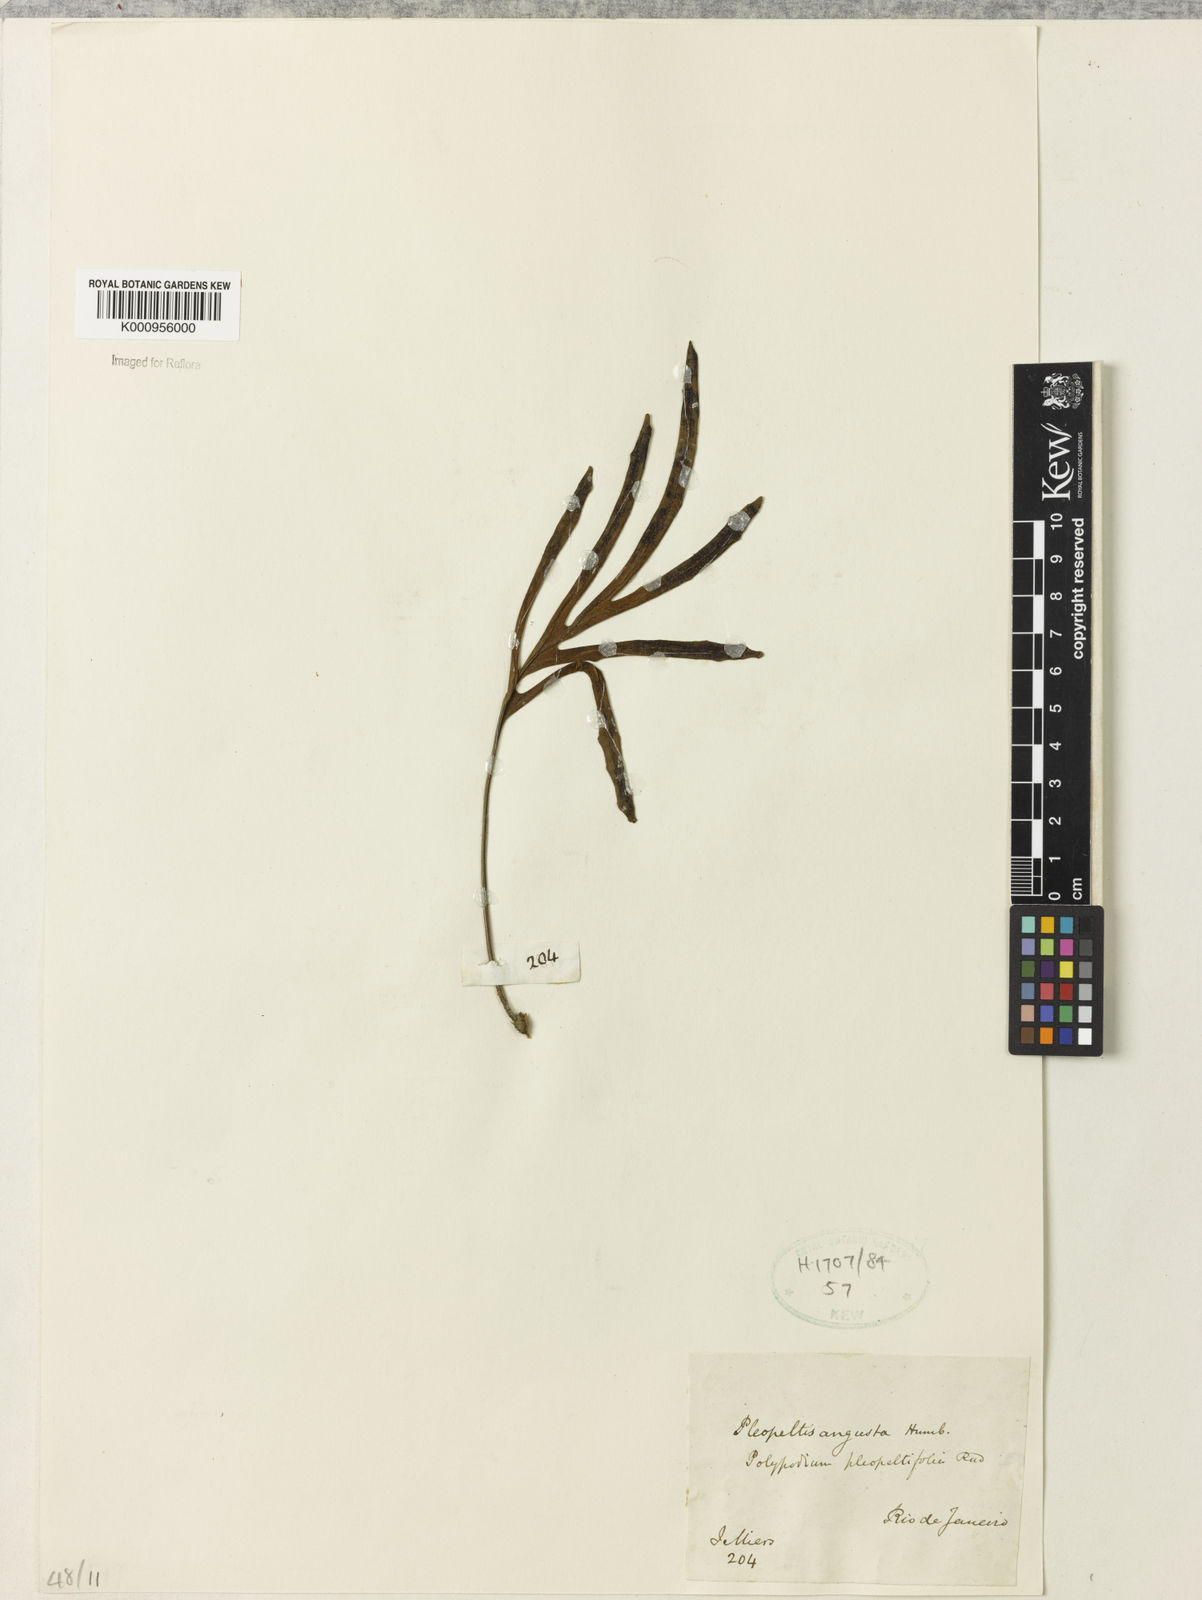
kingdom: Plantae
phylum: Tracheophyta
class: Polypodiopsida
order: Polypodiales
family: Polypodiaceae
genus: Pleopeltis
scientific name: Pleopeltis angusta
